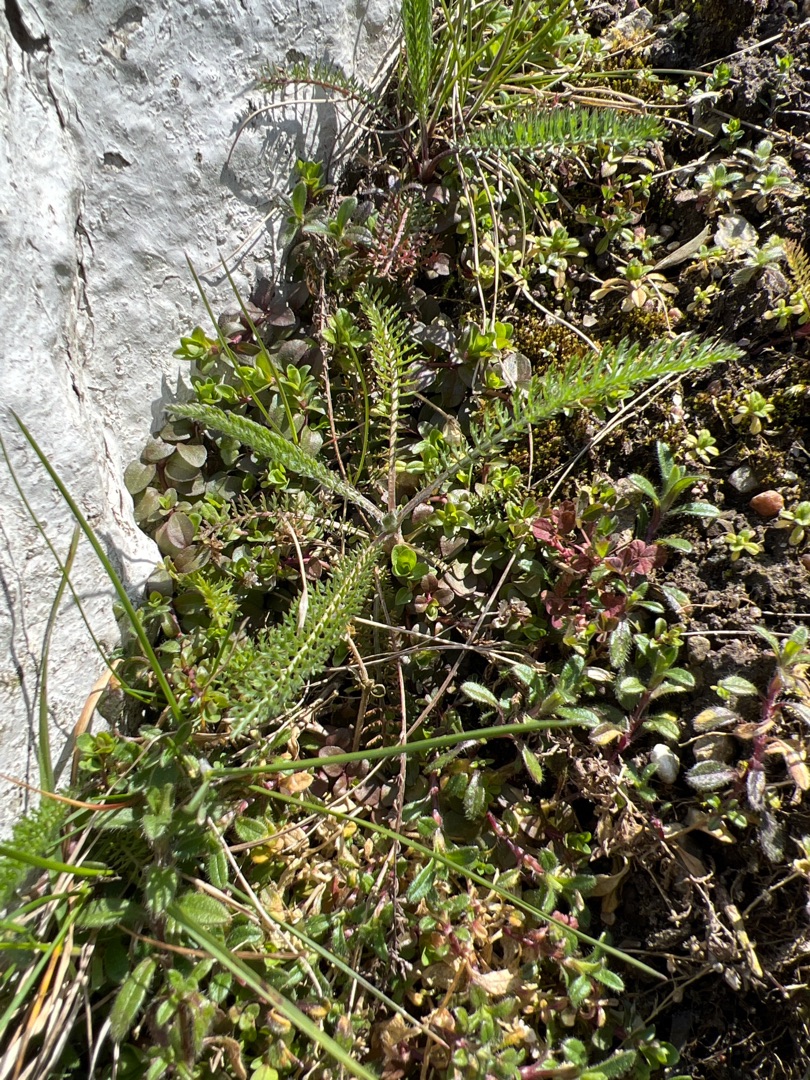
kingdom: Plantae
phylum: Tracheophyta
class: Magnoliopsida
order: Asterales
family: Asteraceae
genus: Achillea
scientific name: Achillea millefolium
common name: Almindelig røllike
